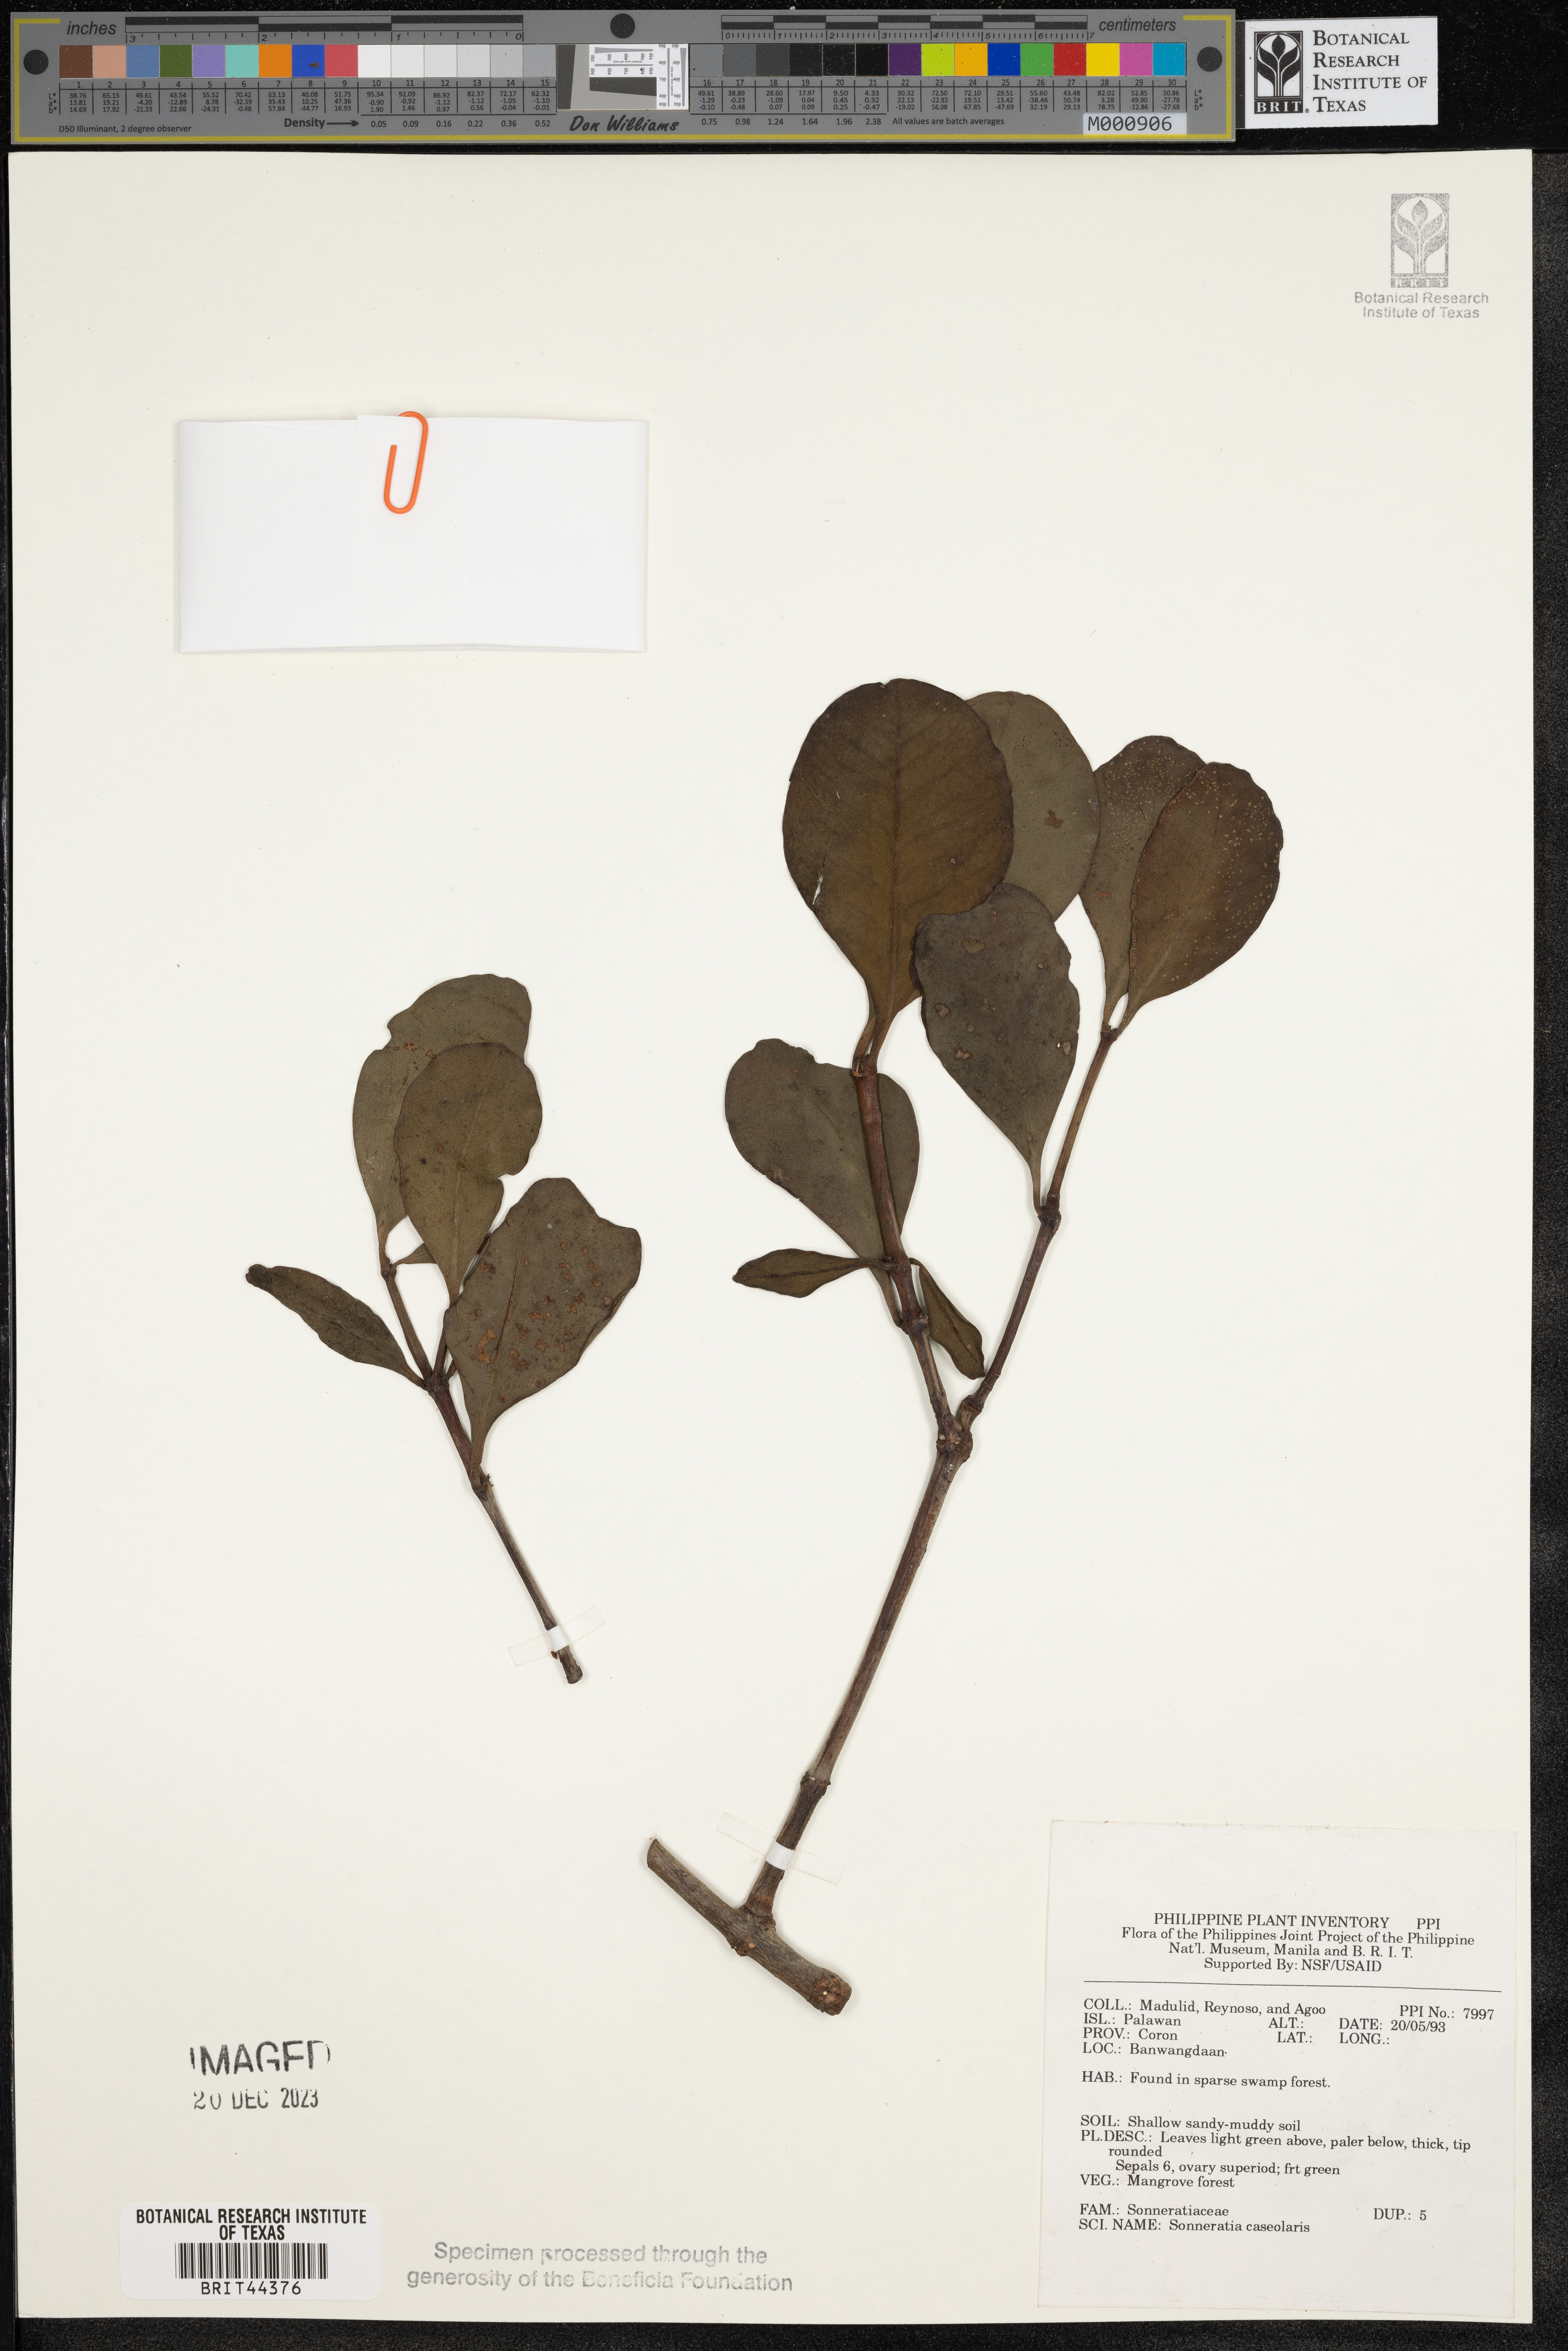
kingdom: Plantae
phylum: Tracheophyta
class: Magnoliopsida
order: Myrtales
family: Lythraceae
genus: Sonneratia
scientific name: Sonneratia caseolaris
